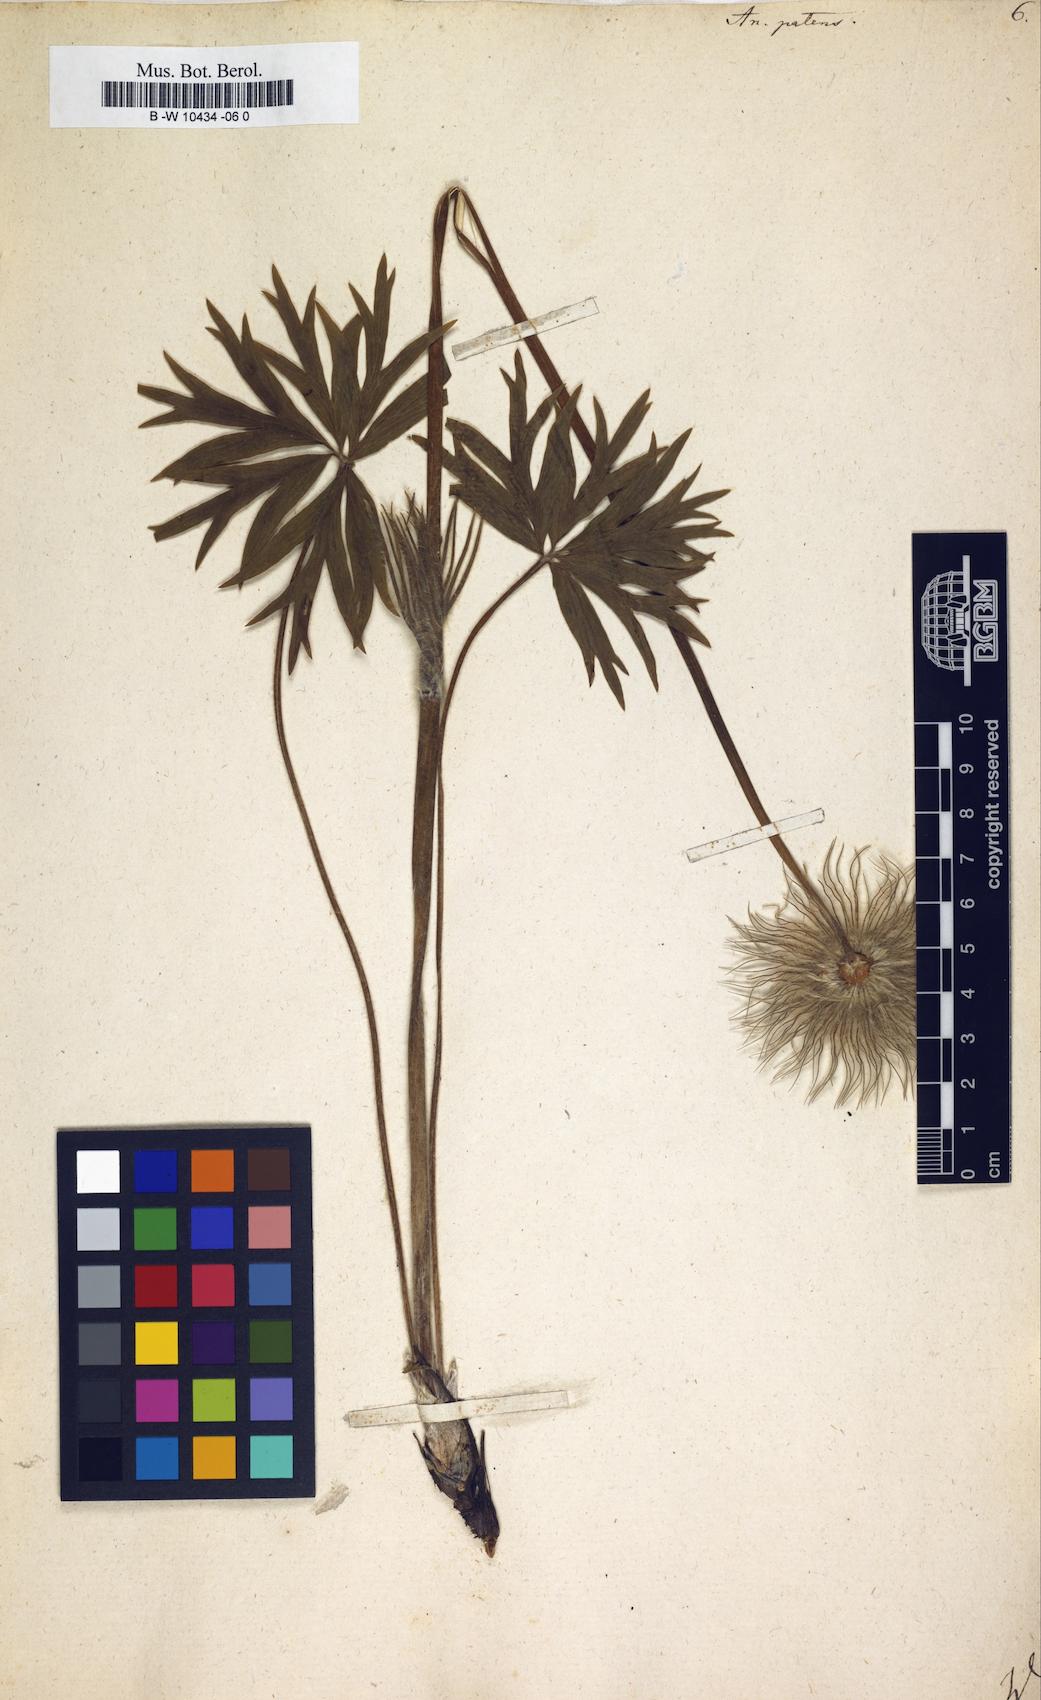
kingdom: Plantae
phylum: Tracheophyta
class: Magnoliopsida
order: Ranunculales
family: Ranunculaceae
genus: Pulsatilla
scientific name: Pulsatilla patens
